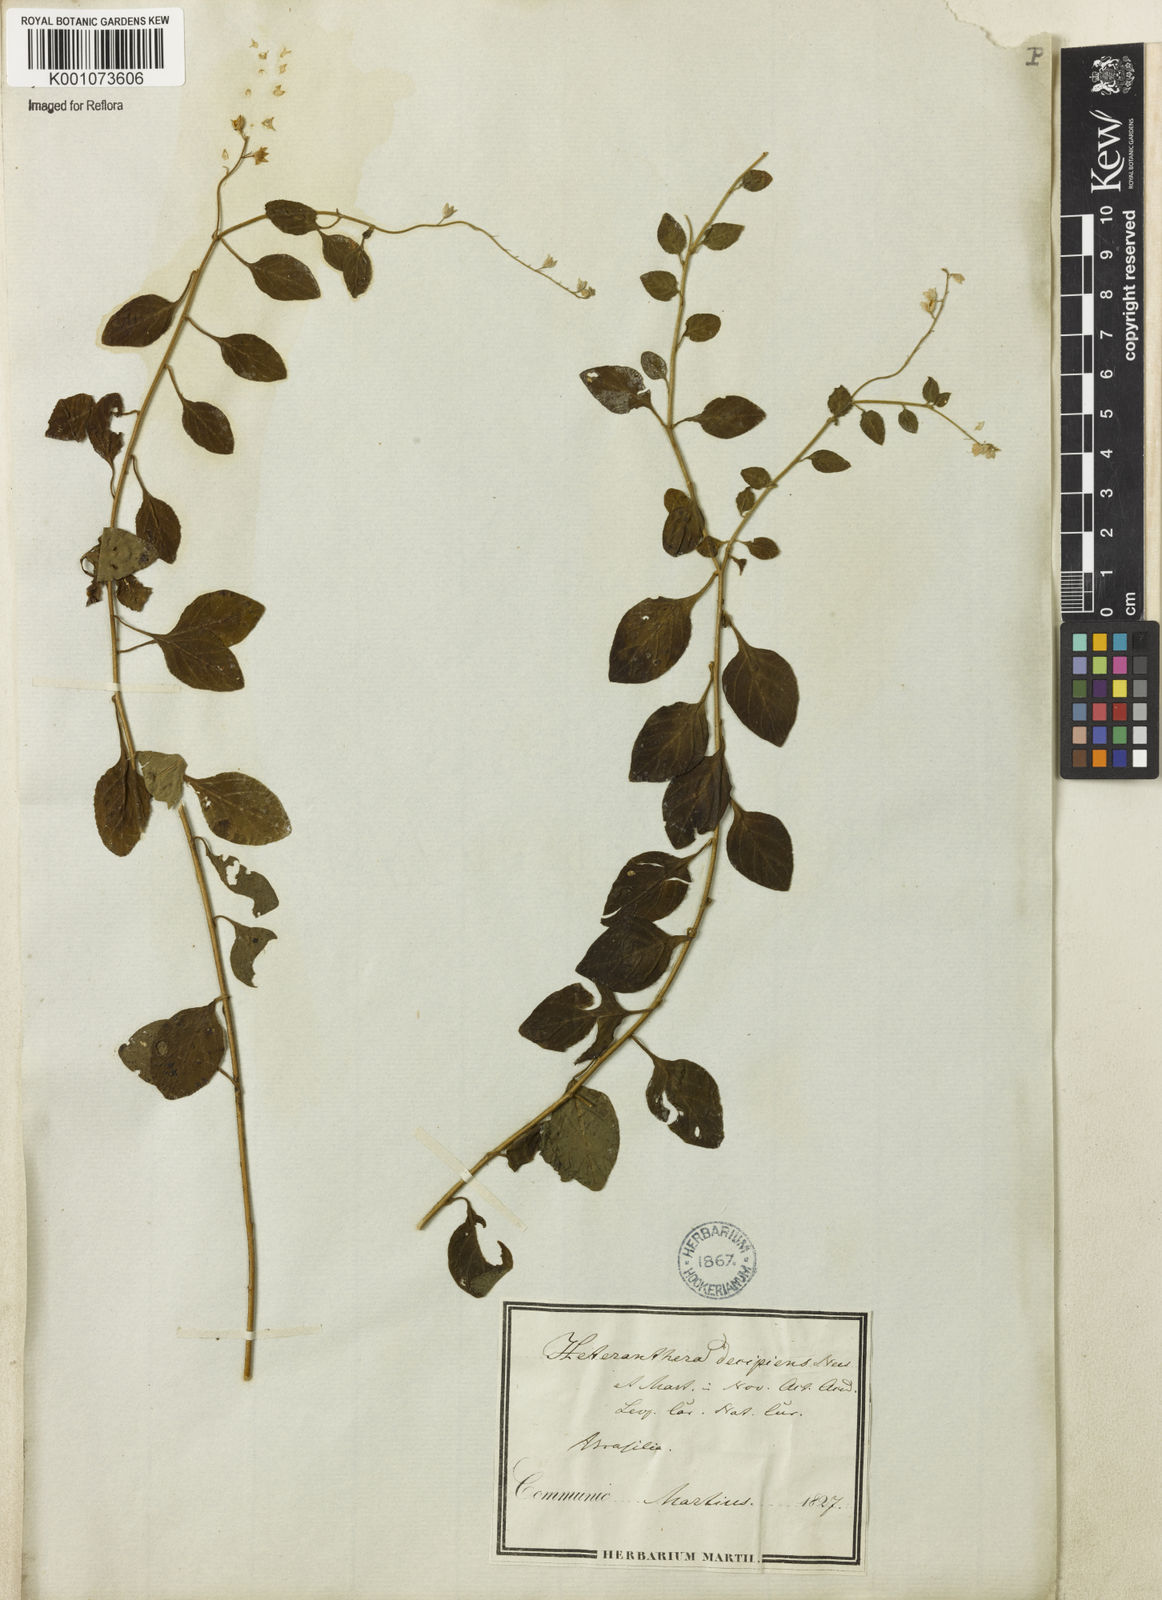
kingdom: Plantae
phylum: Tracheophyta
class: Magnoliopsida
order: Solanales
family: Solanaceae
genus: Heteranthia
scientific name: Heteranthia decipiens
